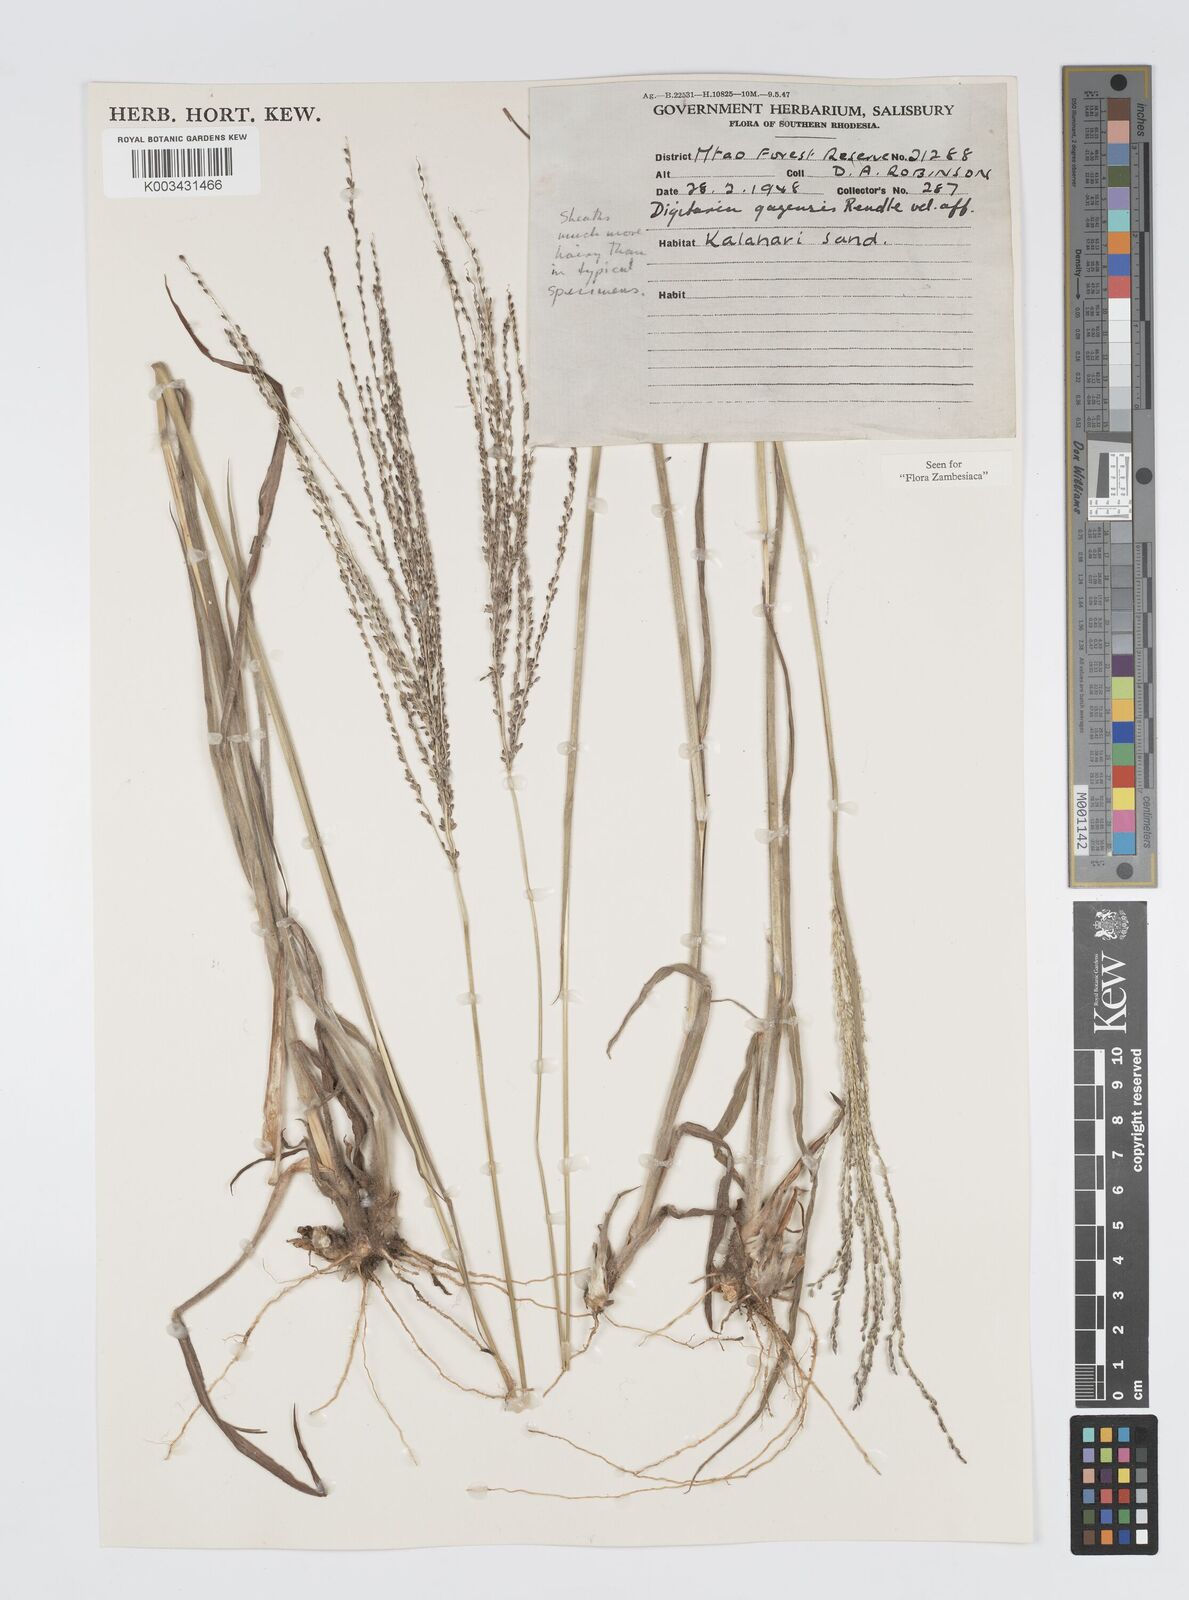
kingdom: Plantae
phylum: Tracheophyta
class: Liliopsida
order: Poales
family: Poaceae
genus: Digitaria
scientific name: Digitaria gazensis
